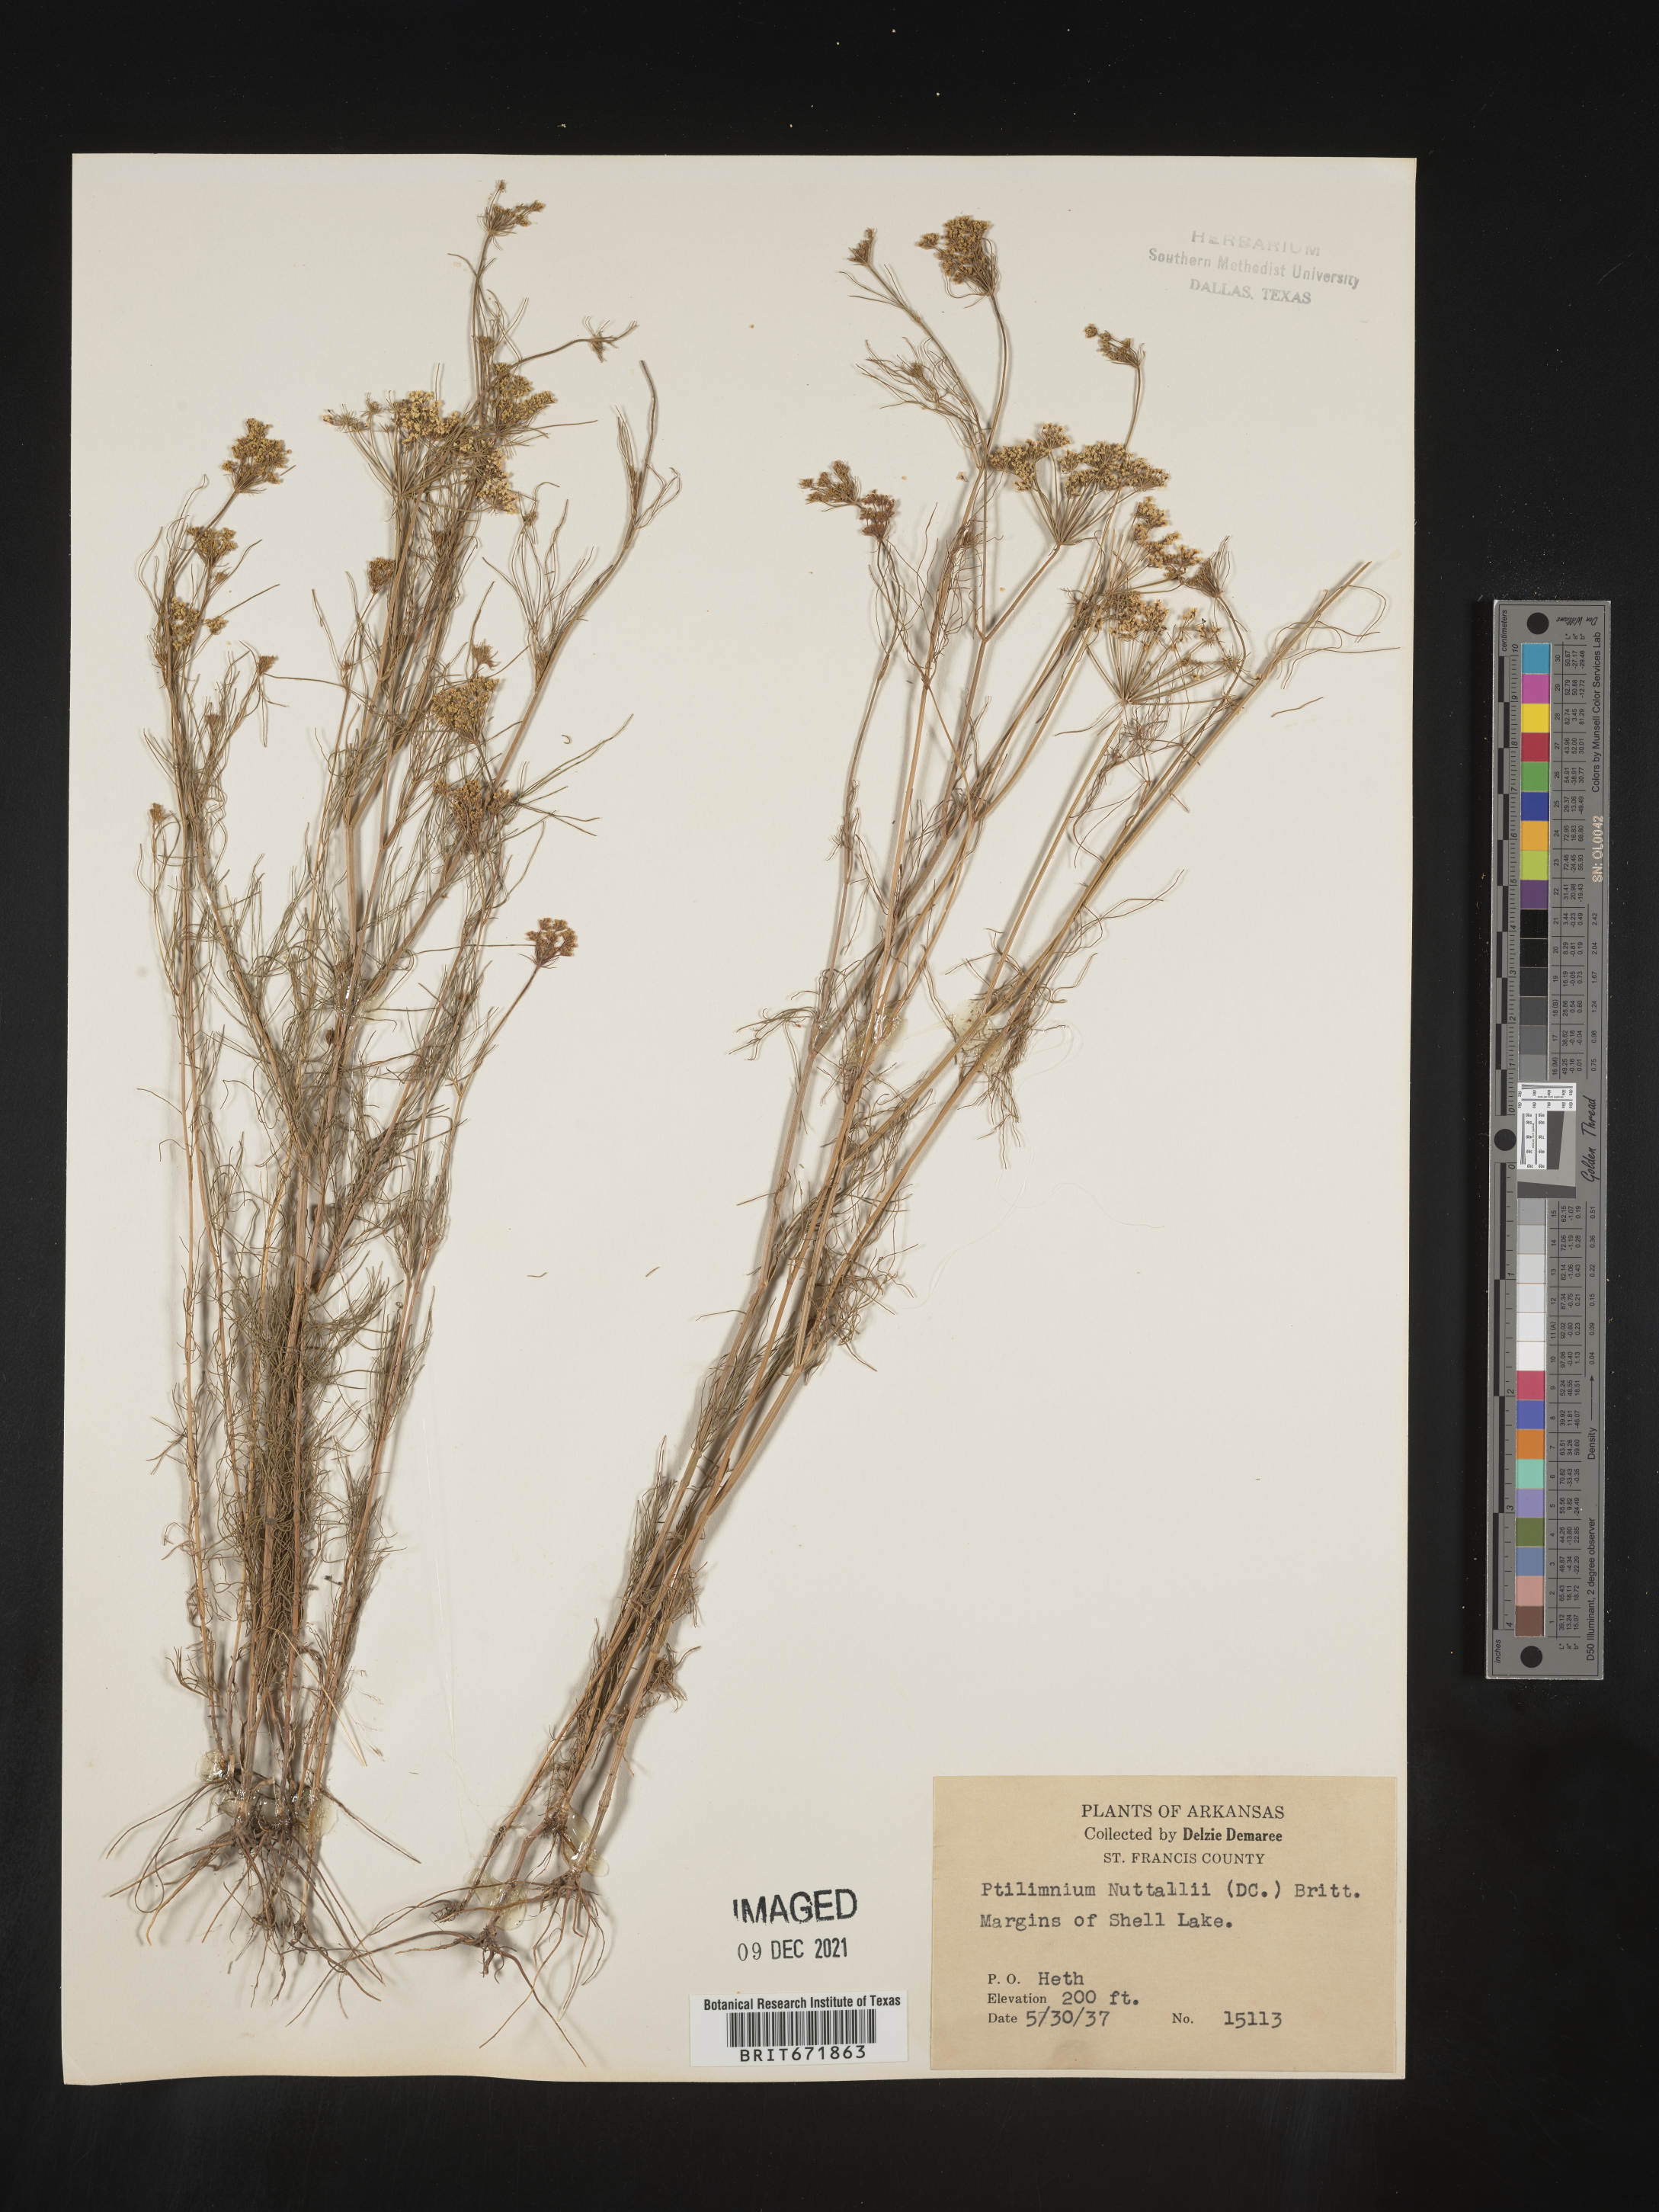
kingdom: Plantae
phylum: Tracheophyta
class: Magnoliopsida
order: Apiales
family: Apiaceae
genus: Ptilimnium
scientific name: Ptilimnium nuttallii
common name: Ozark bishop's-weed
